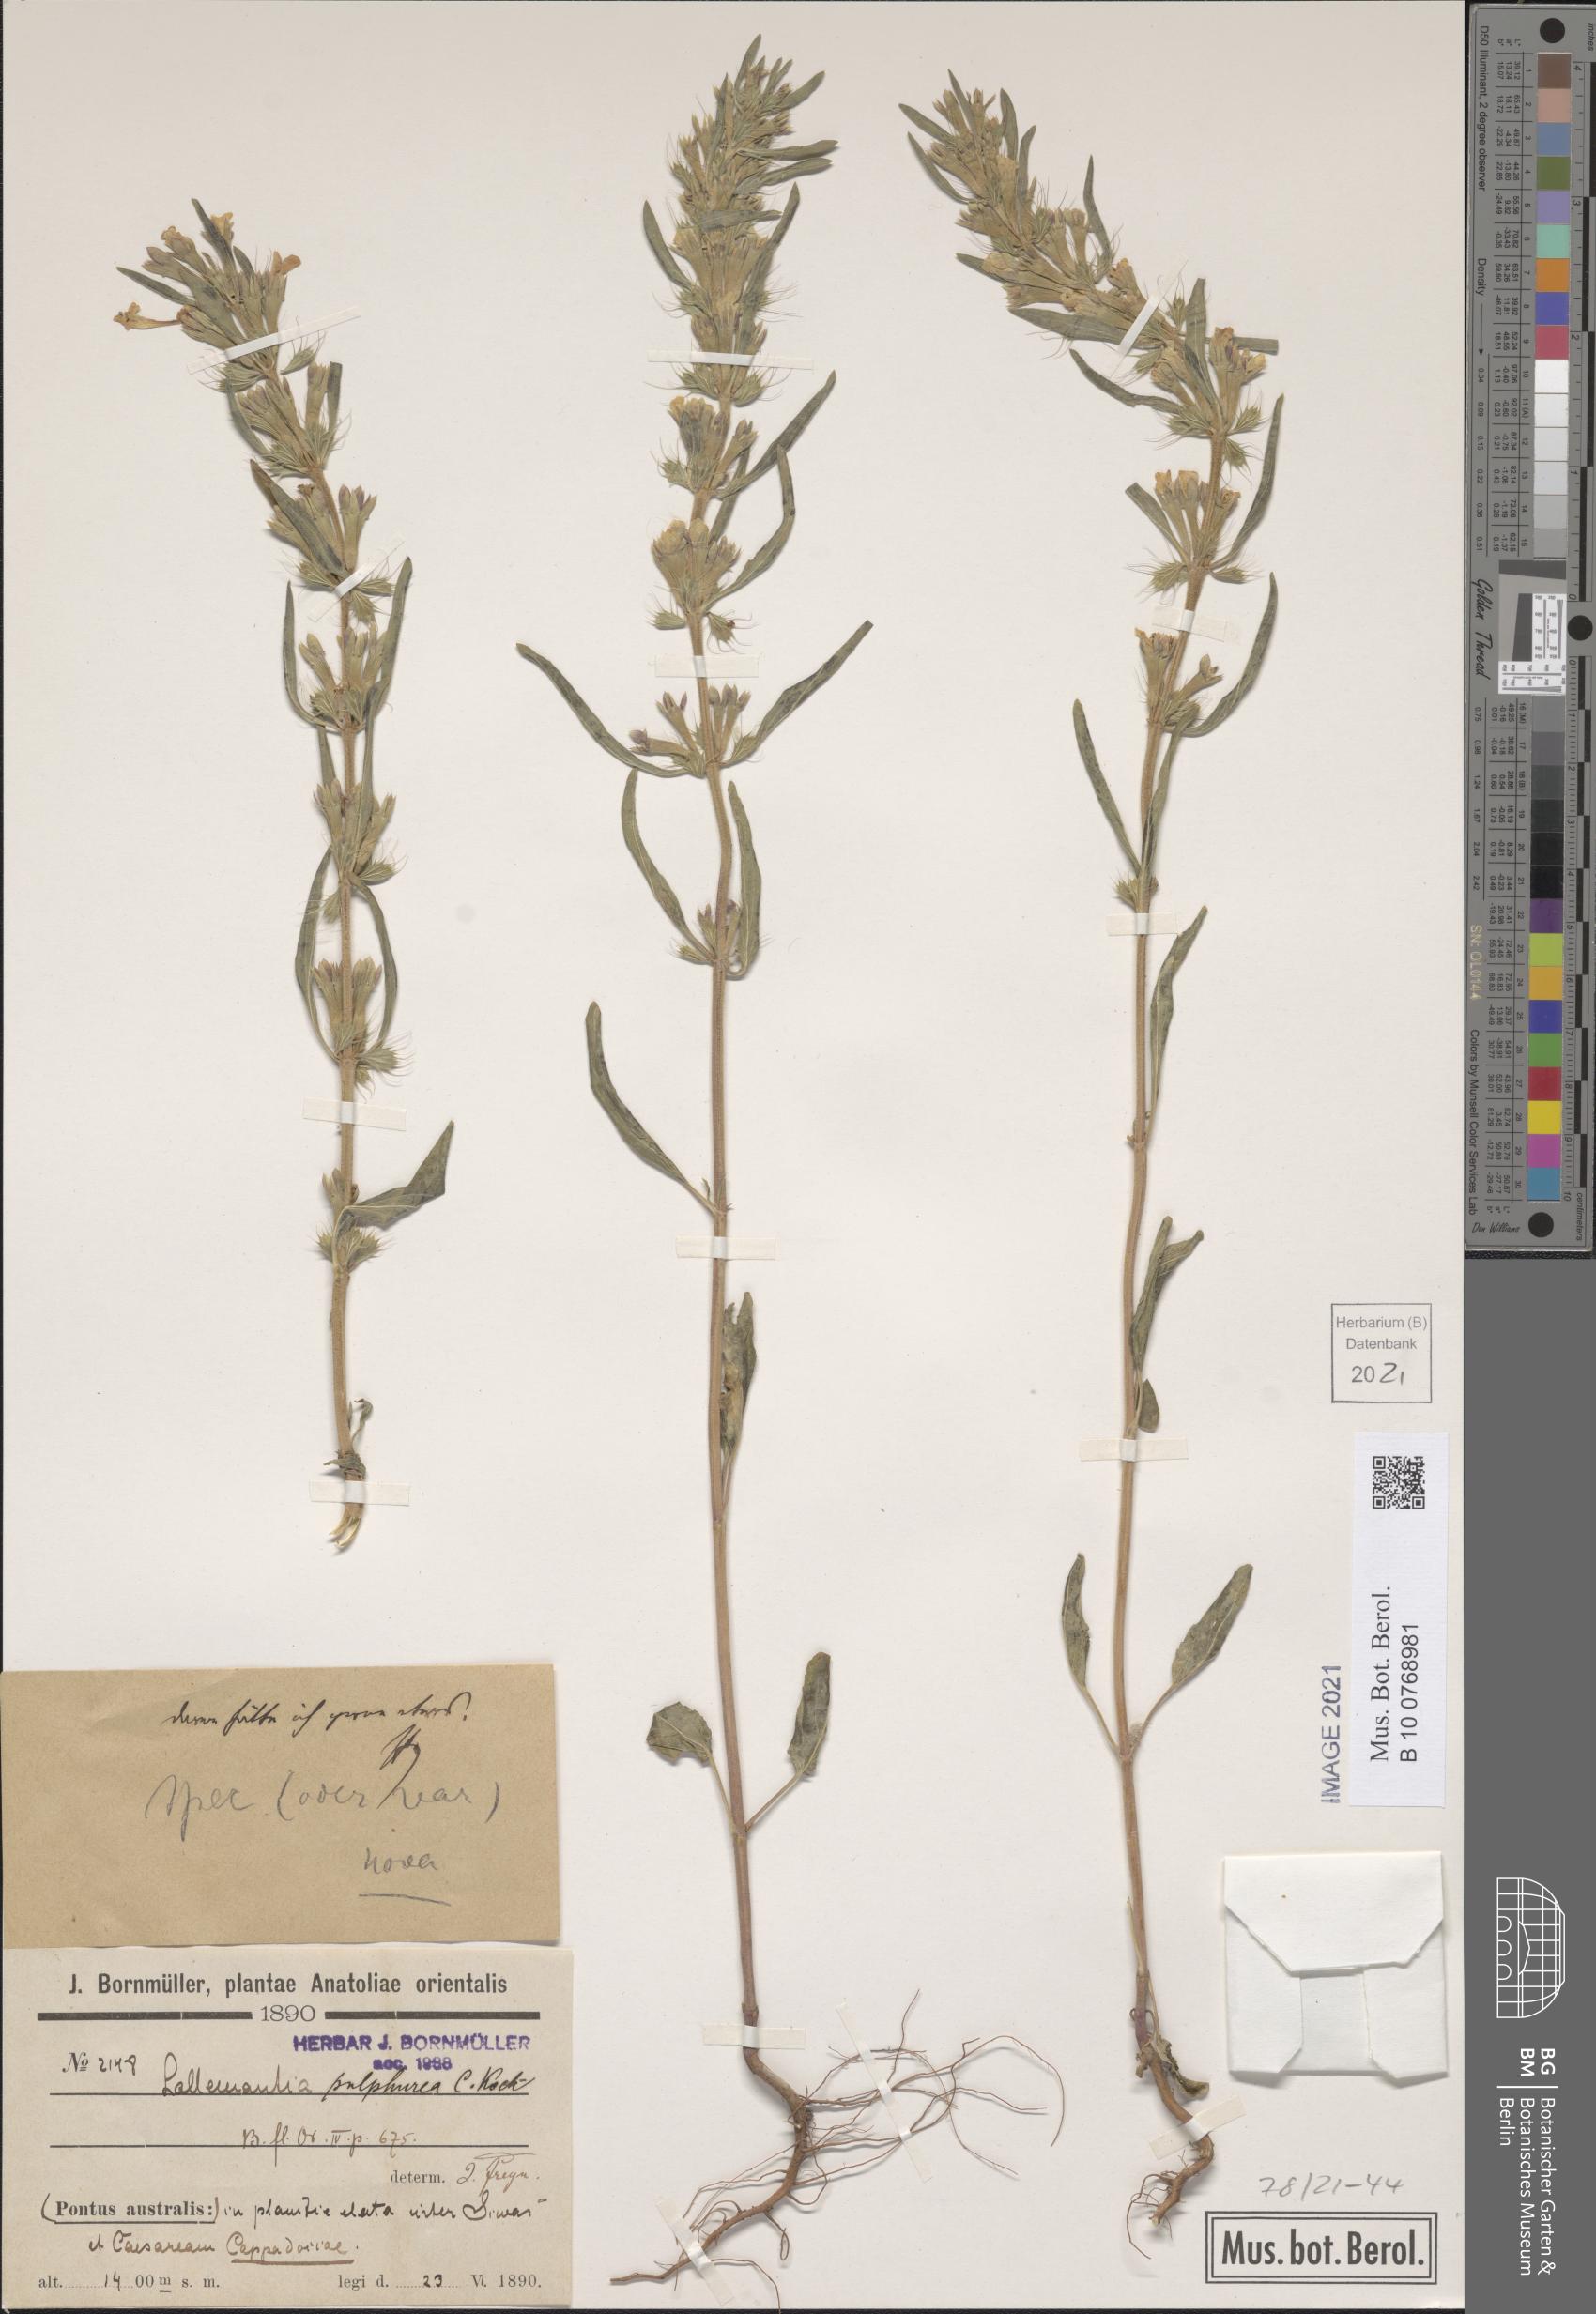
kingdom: Plantae
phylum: Tracheophyta
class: Magnoliopsida
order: Lamiales
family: Lamiaceae
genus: Lallemantia
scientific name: Lallemantia iberica
